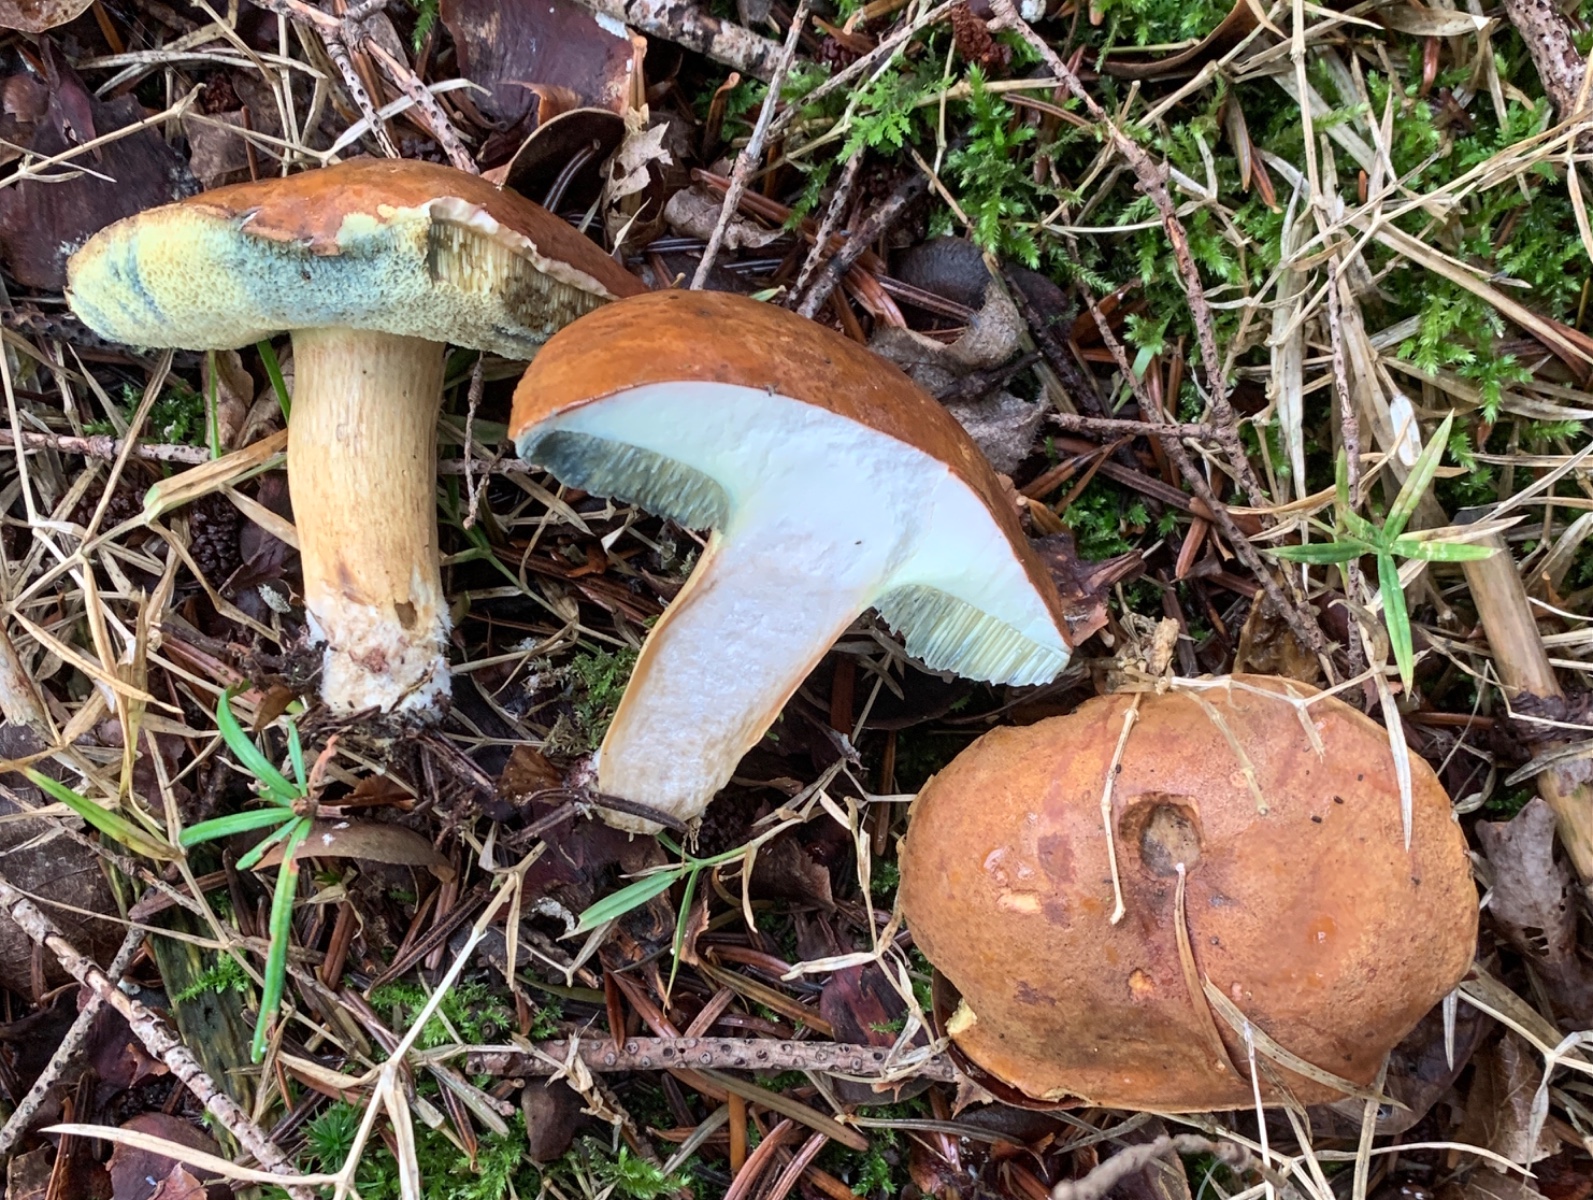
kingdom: Fungi
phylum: Basidiomycota
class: Agaricomycetes
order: Boletales
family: Boletaceae
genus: Imleria
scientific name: Imleria badia
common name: brunstokket rørhat
